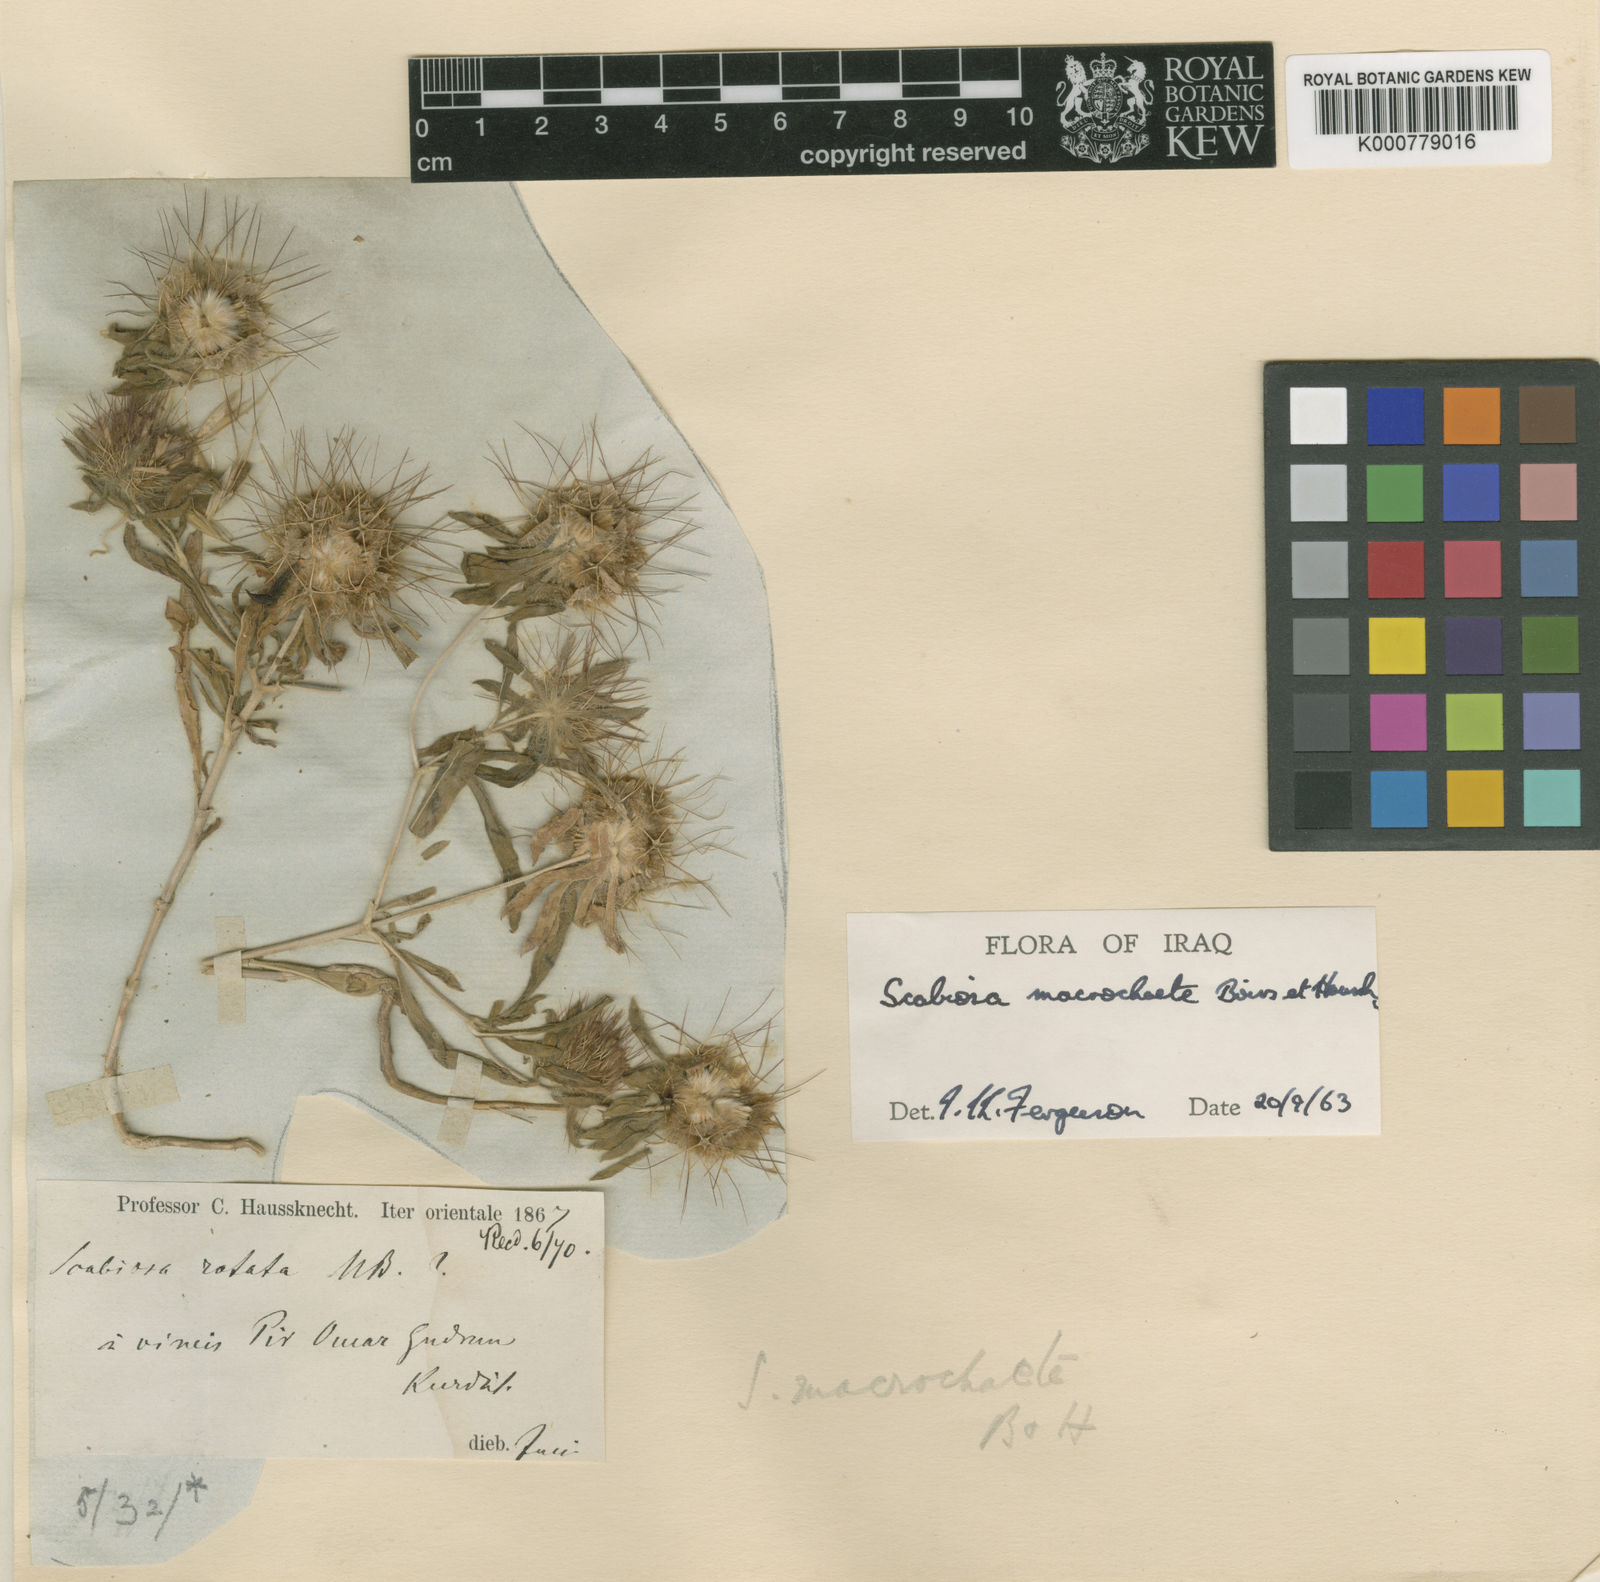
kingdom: Plantae
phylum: Tracheophyta
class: Magnoliopsida
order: Dipsacales
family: Caprifoliaceae
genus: Lomelosia
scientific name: Lomelosia macrochaete
